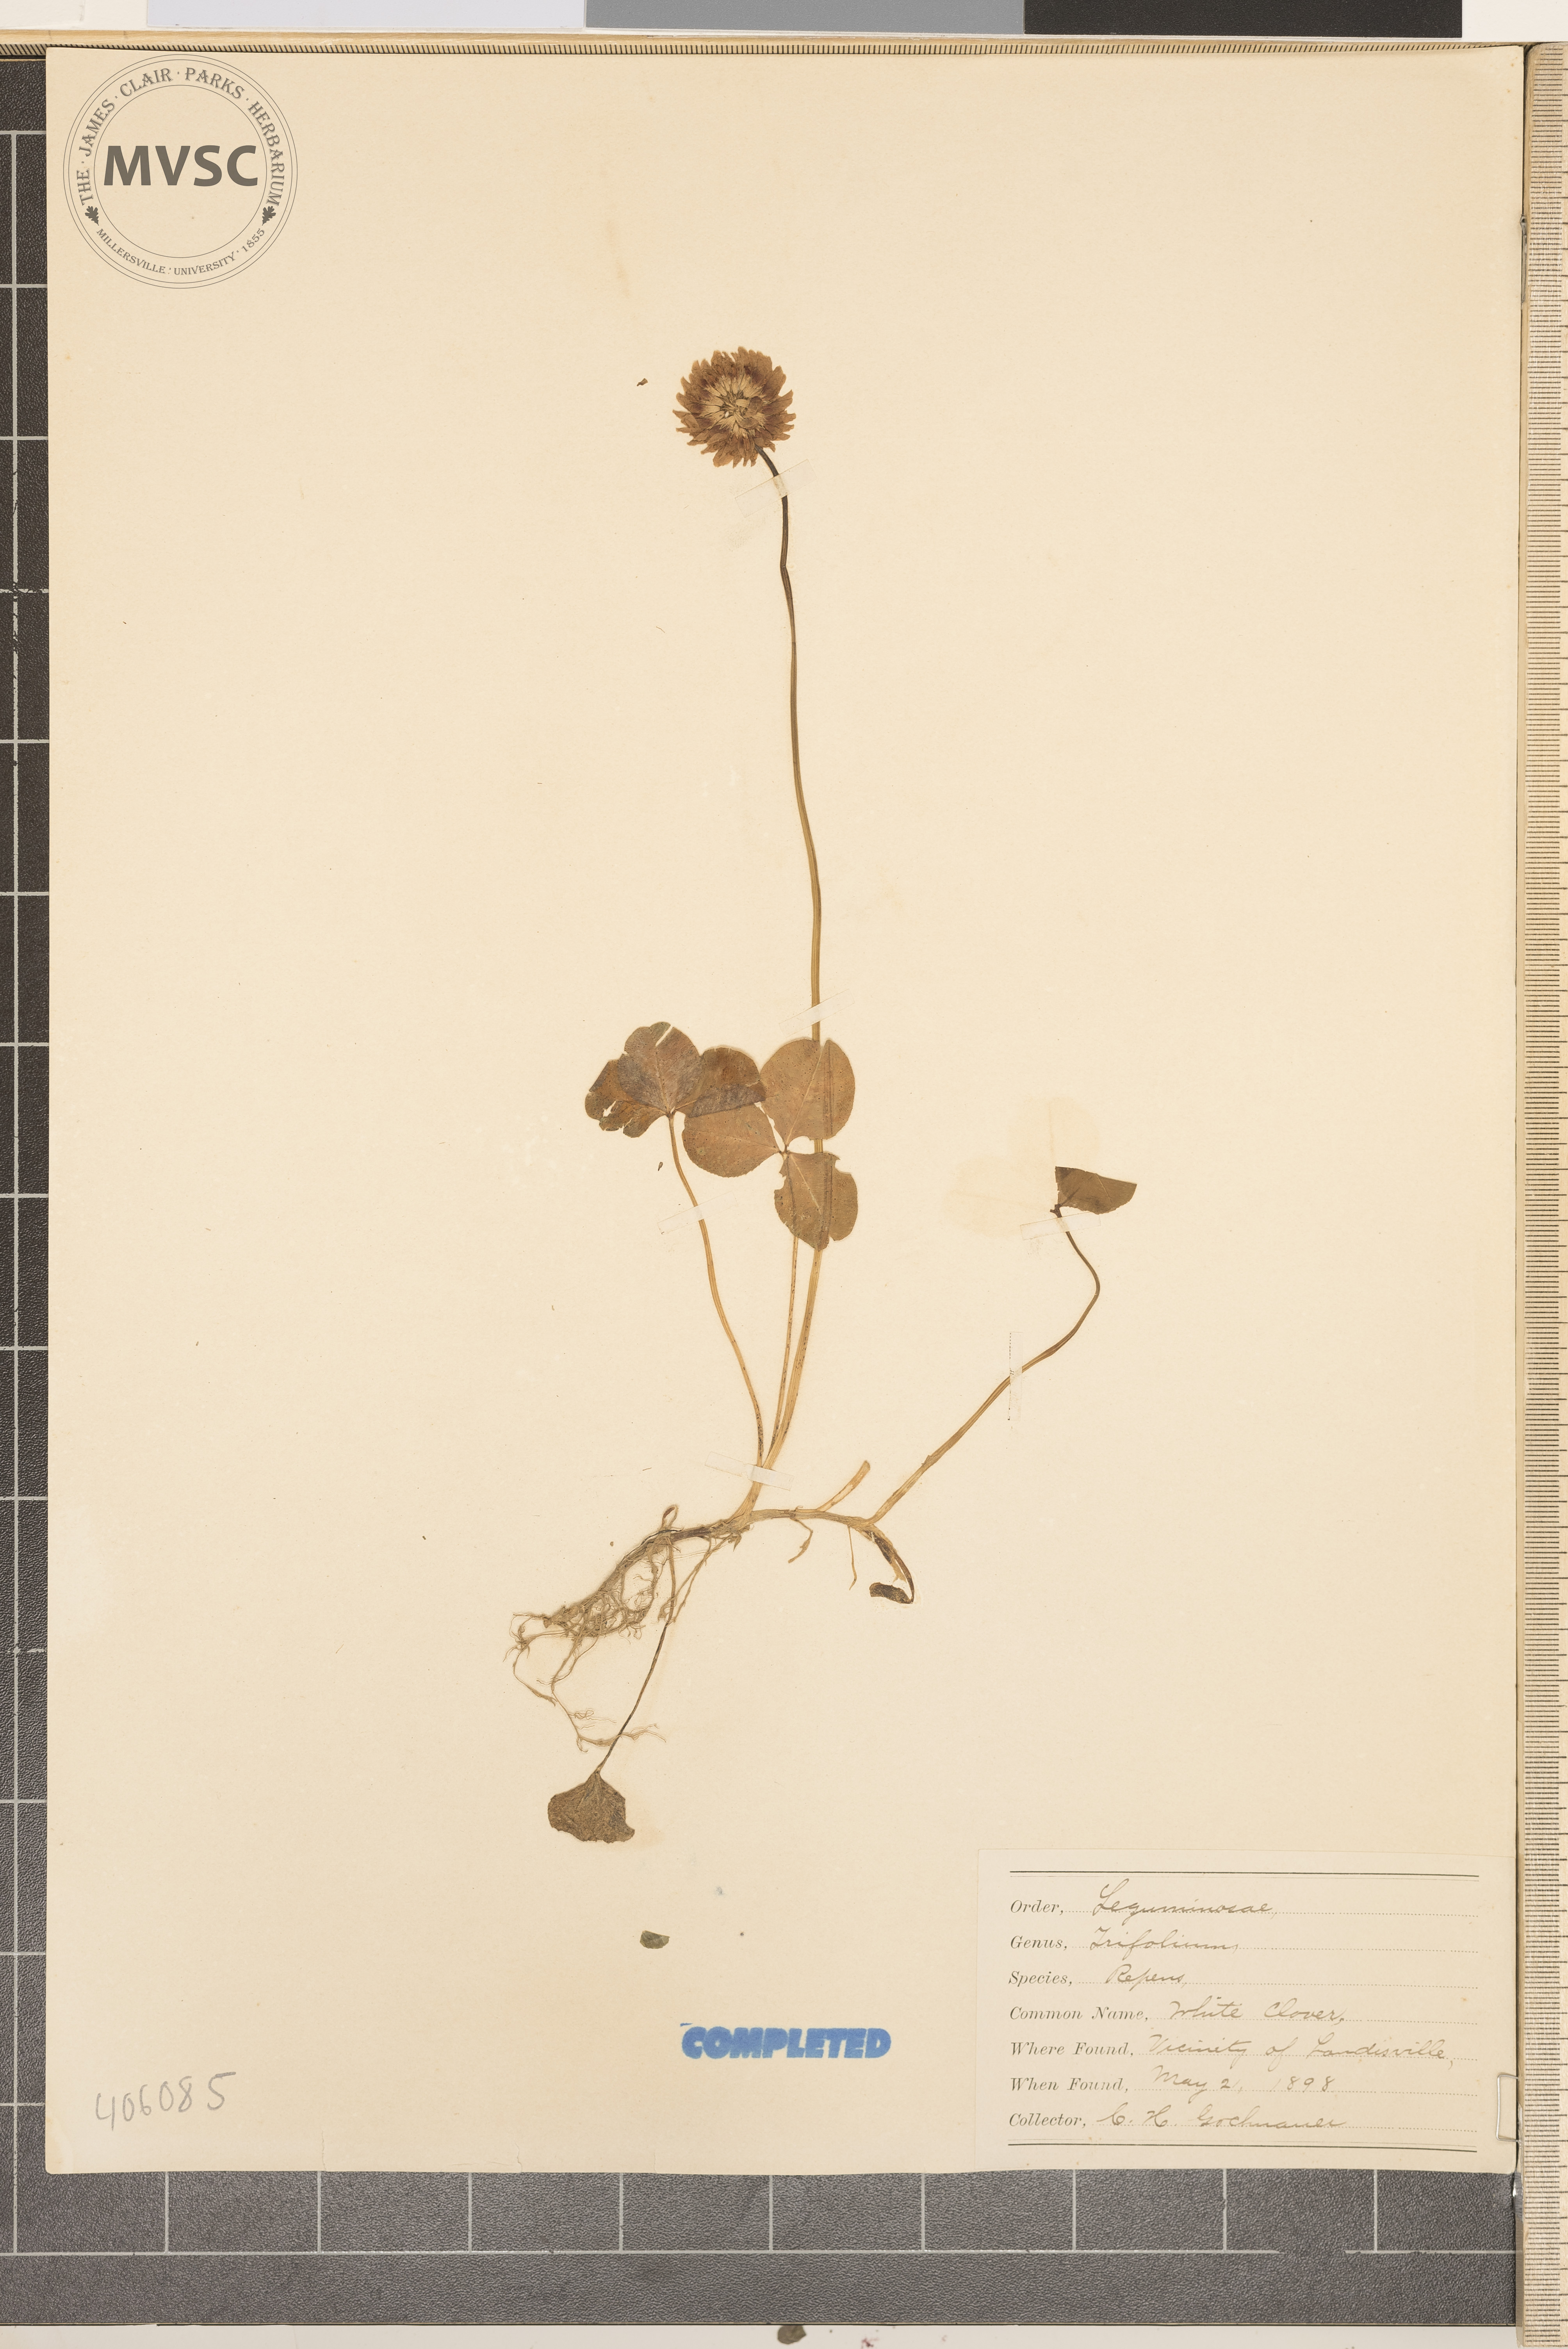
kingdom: Plantae
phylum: Tracheophyta
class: Magnoliopsida
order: Fabales
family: Fabaceae
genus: Trifolium
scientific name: Trifolium repens
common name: White clover
